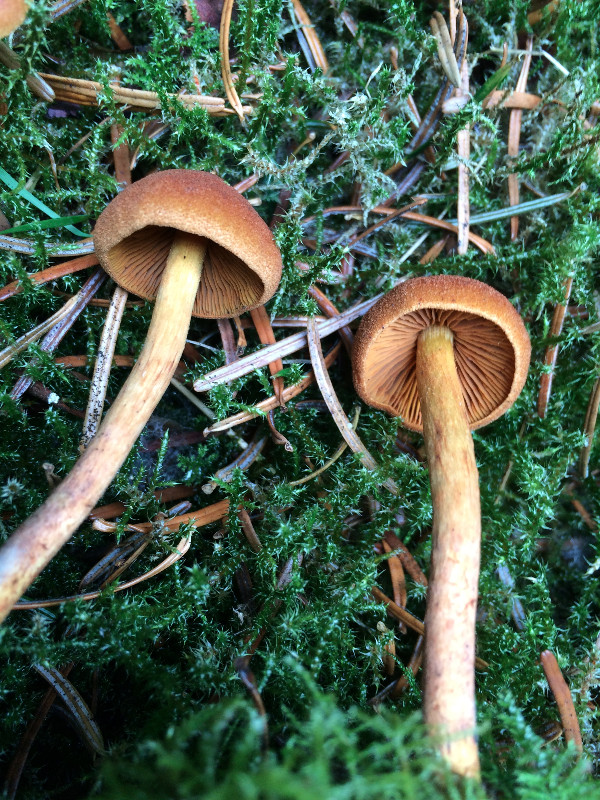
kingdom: Fungi
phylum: Basidiomycota
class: Agaricomycetes
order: Agaricales
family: Cortinariaceae
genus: Cortinarius
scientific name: Cortinarius cinnamomeus
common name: kanel-slørhat
